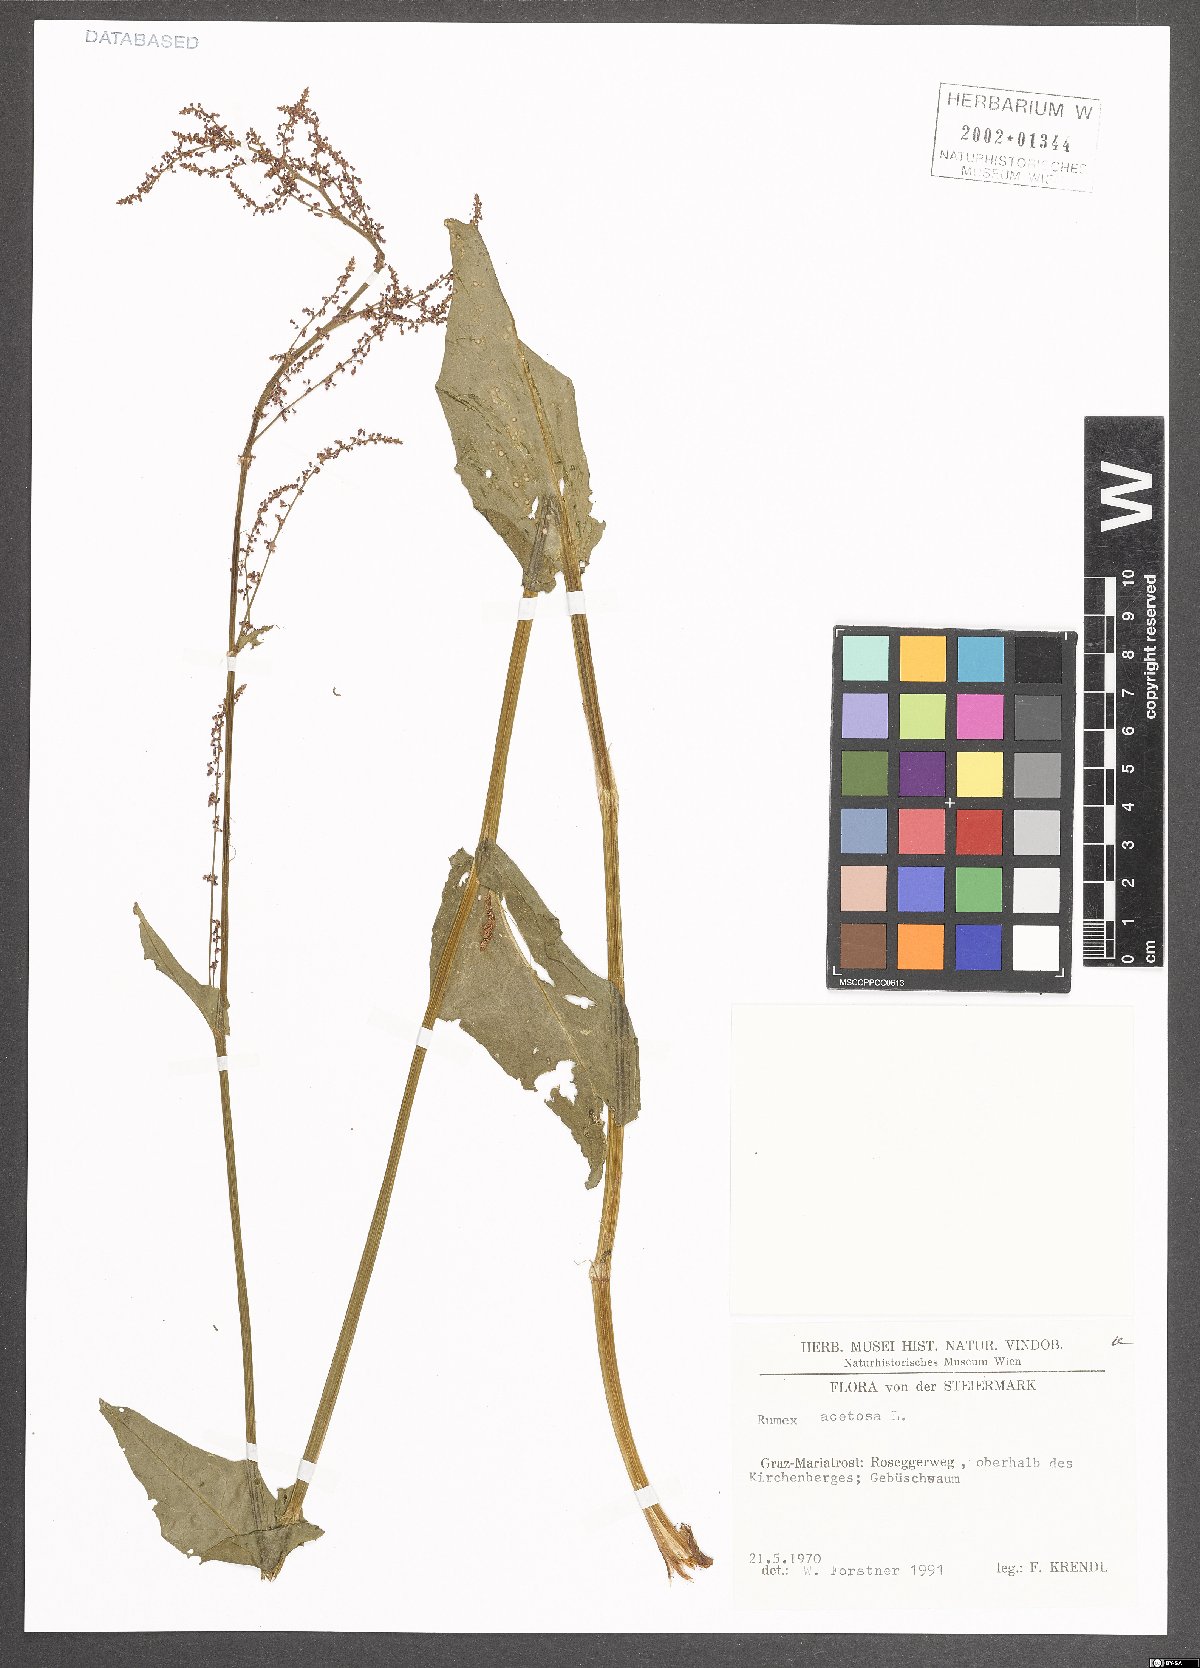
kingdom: Plantae
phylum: Tracheophyta
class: Magnoliopsida
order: Caryophyllales
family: Polygonaceae
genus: Rumex
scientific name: Rumex acetosa
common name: Garden sorrel
